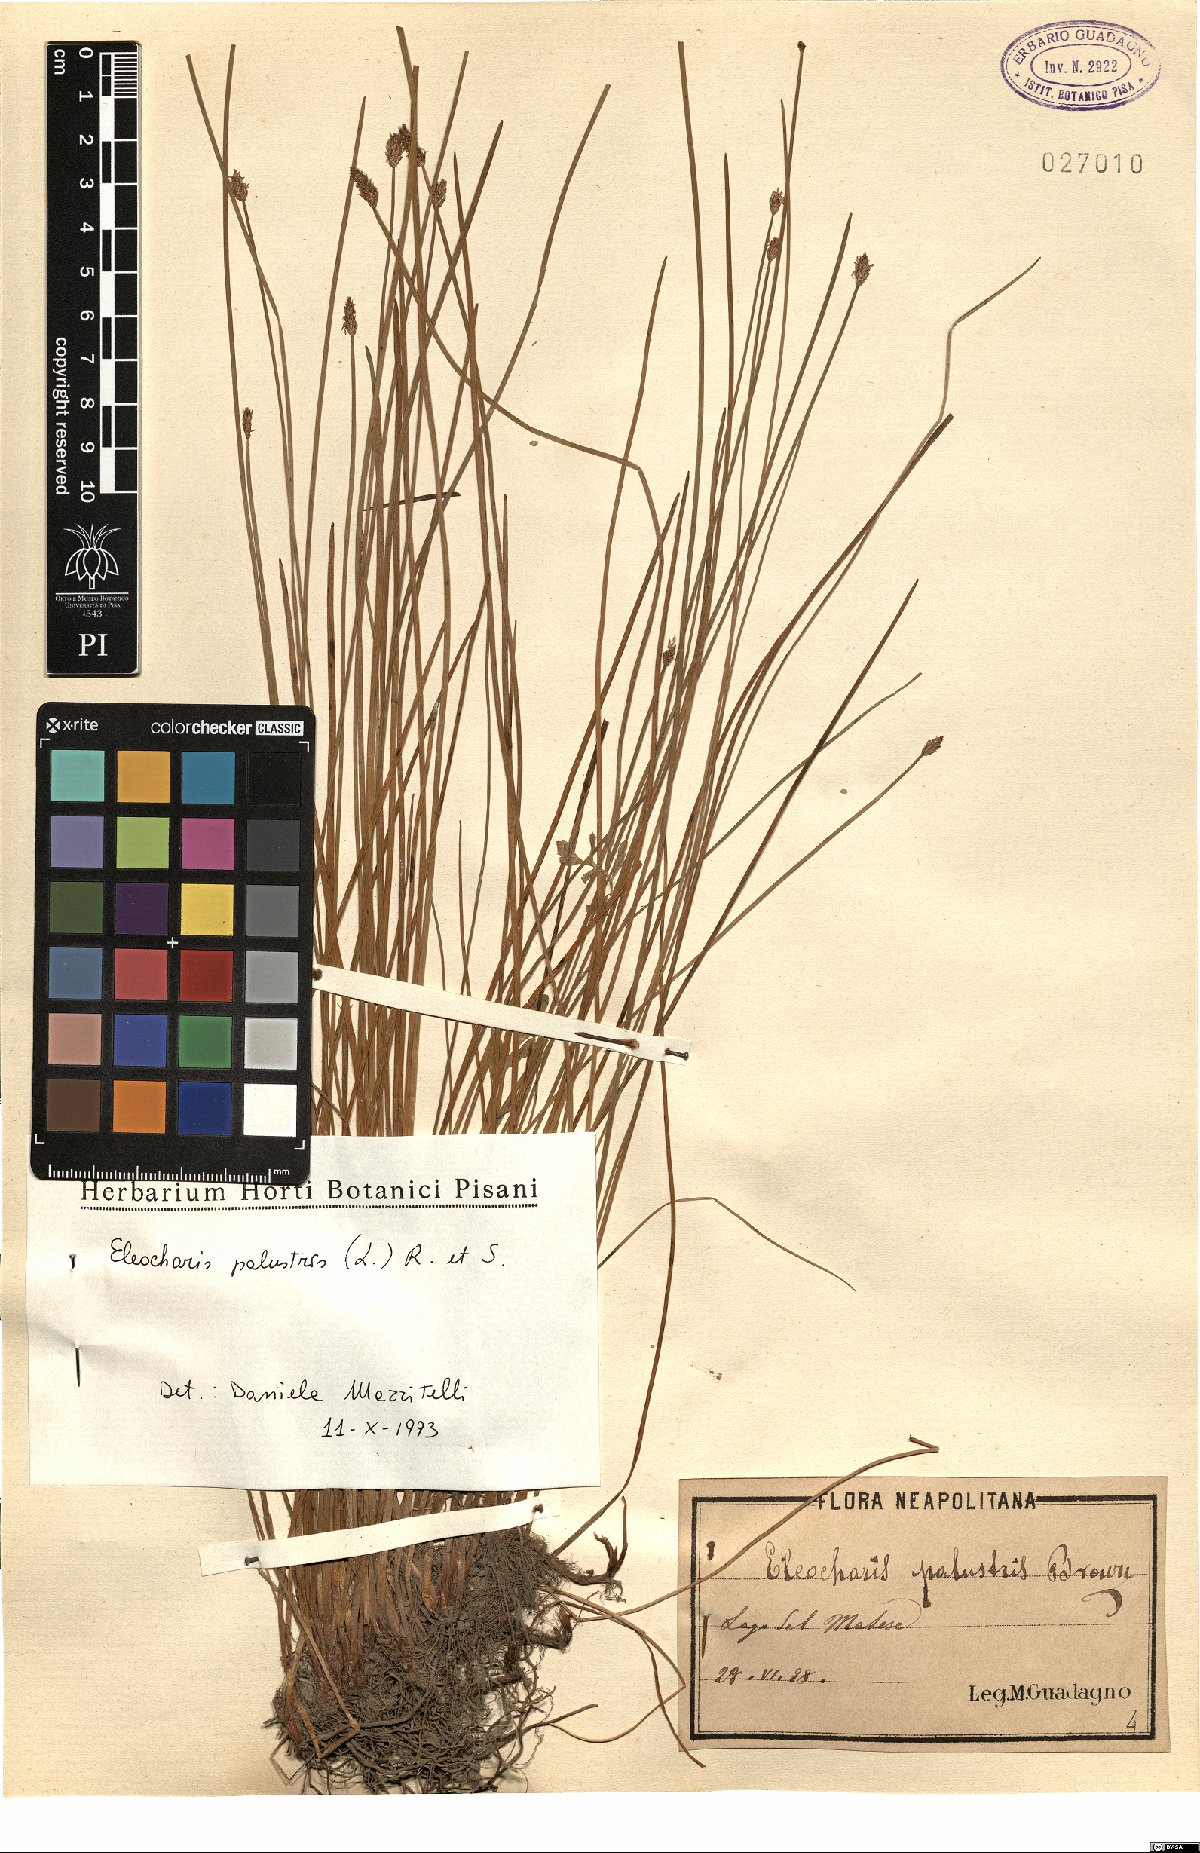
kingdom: Plantae
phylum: Tracheophyta
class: Liliopsida
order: Poales
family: Cyperaceae
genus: Eleocharis
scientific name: Eleocharis palustris
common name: Common spike-rush
